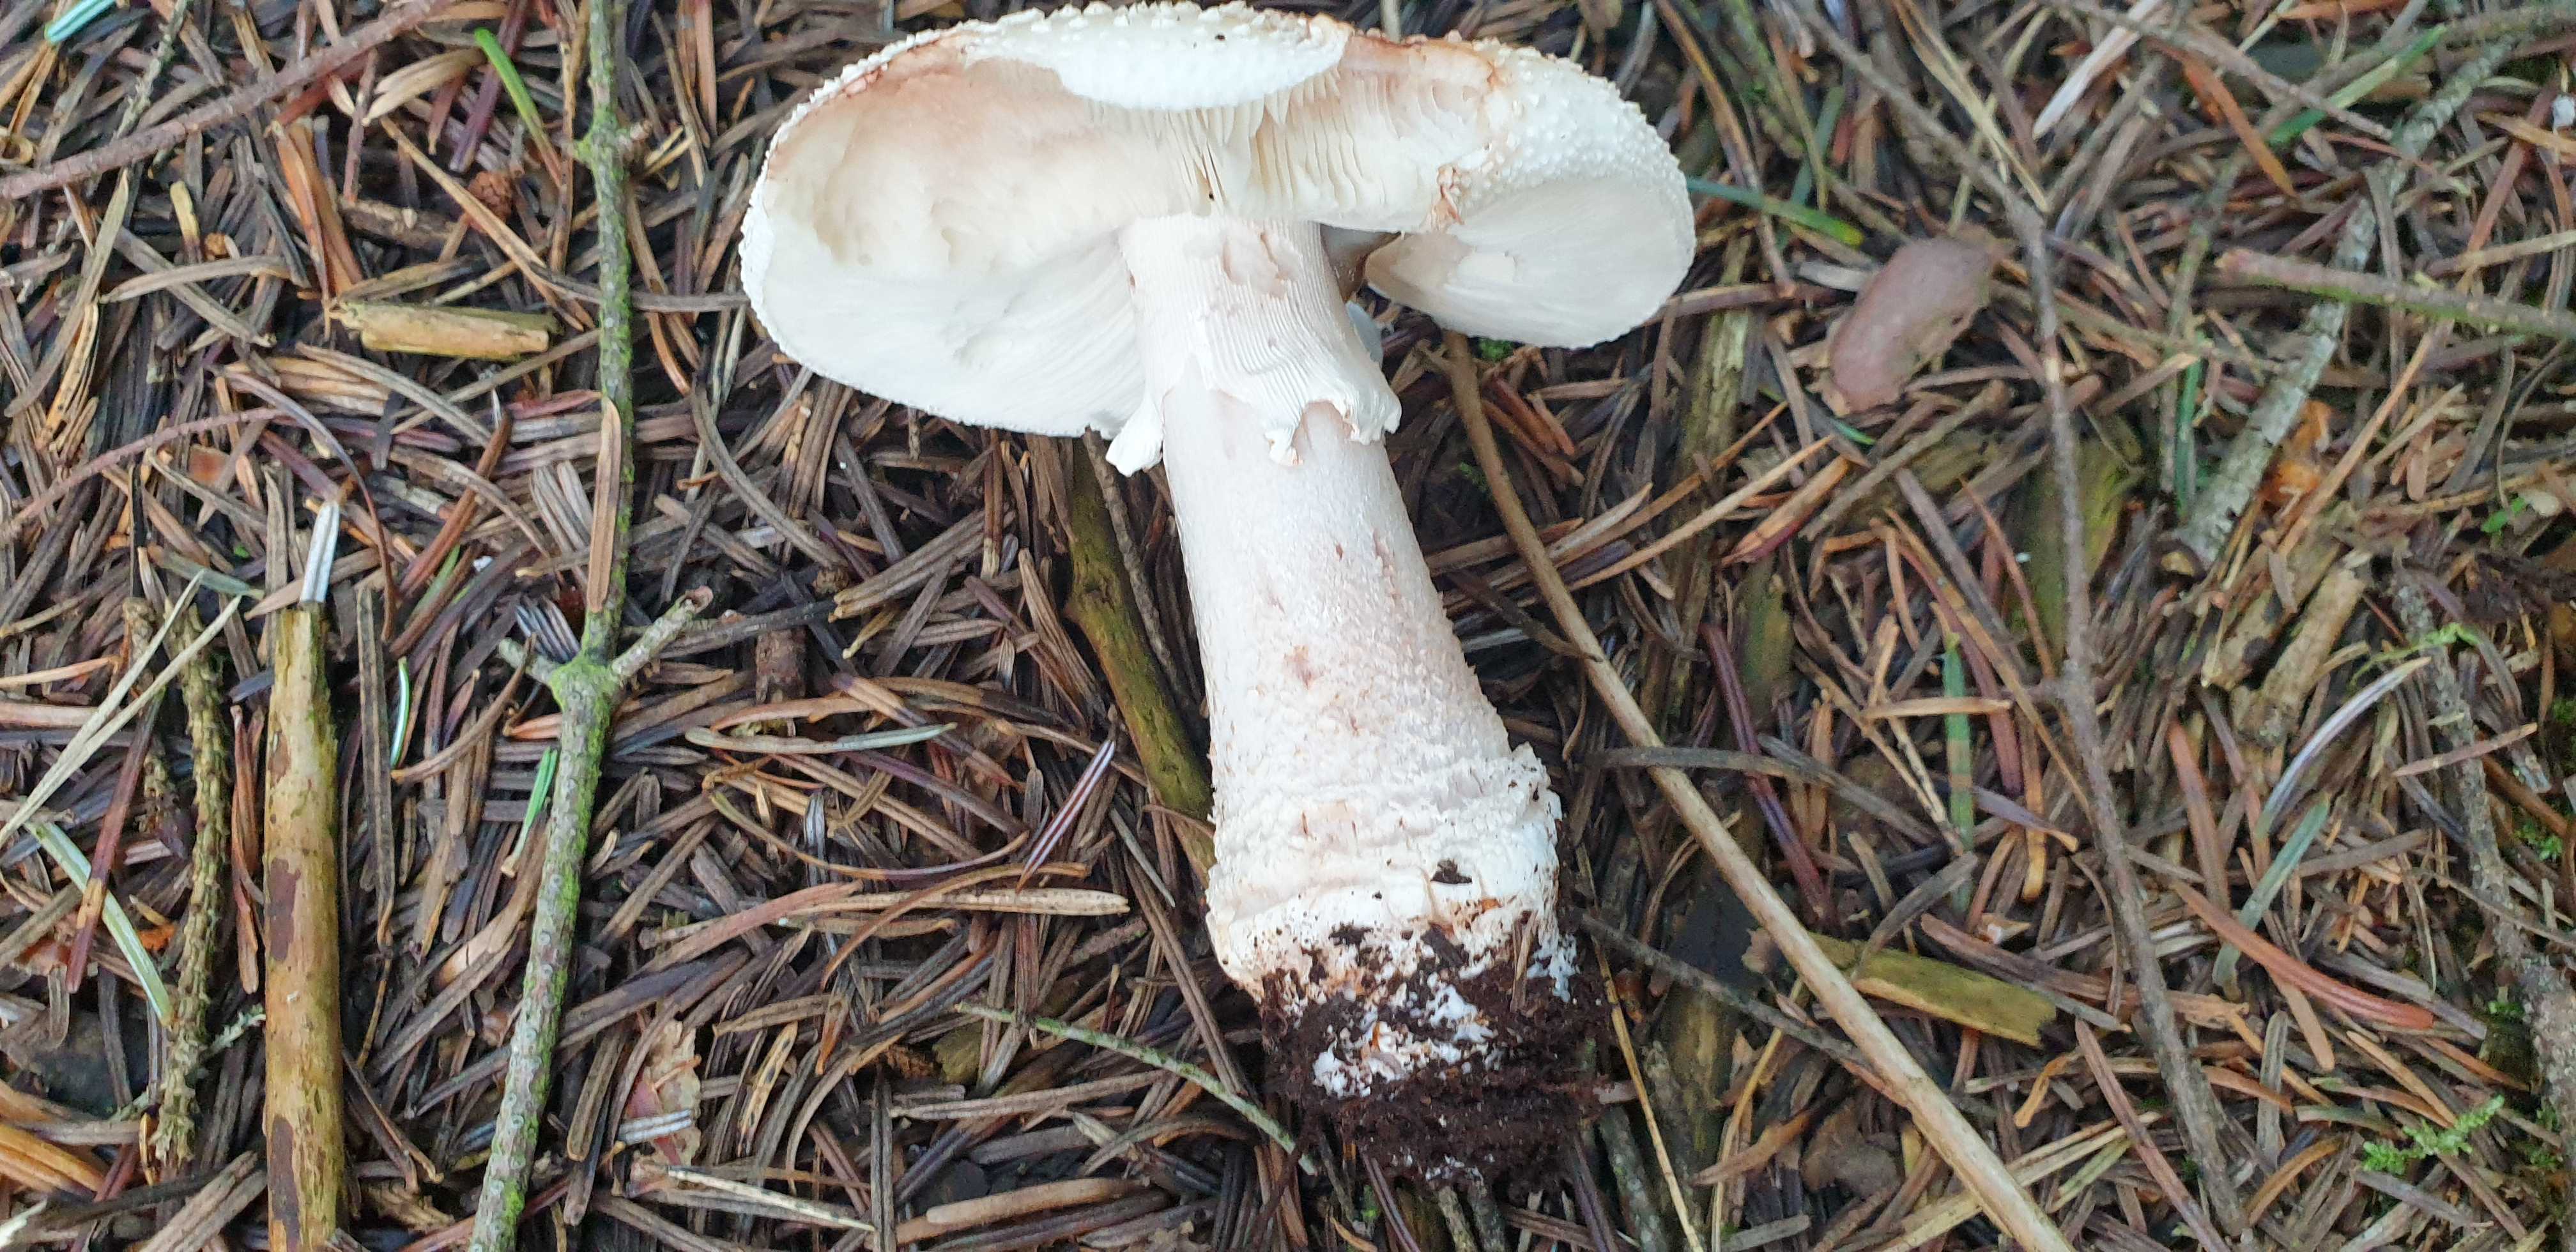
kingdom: Fungi
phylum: Basidiomycota
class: Agaricomycetes
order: Agaricales
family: Amanitaceae
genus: Amanita
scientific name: Amanita rubescens
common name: rødmende fluesvamp
